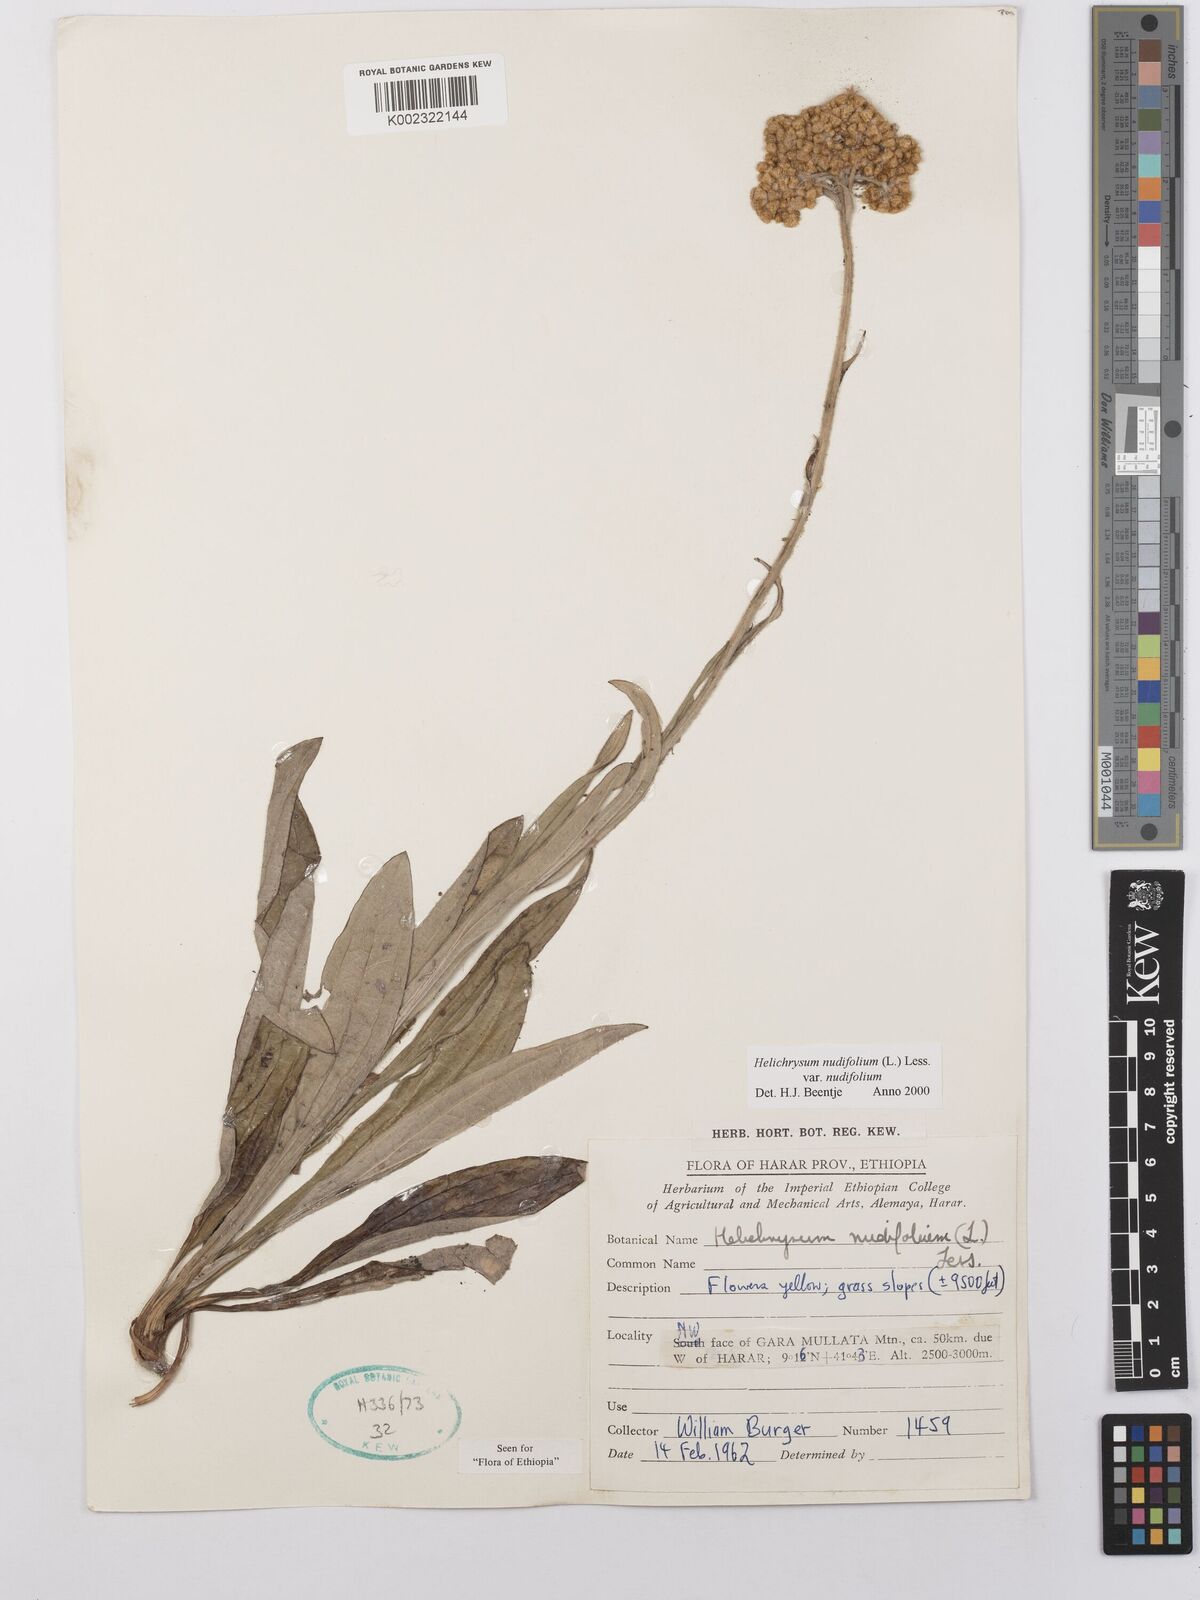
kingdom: Plantae
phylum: Tracheophyta
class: Magnoliopsida
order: Asterales
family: Asteraceae
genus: Helichrysum
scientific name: Helichrysum nudifolium
